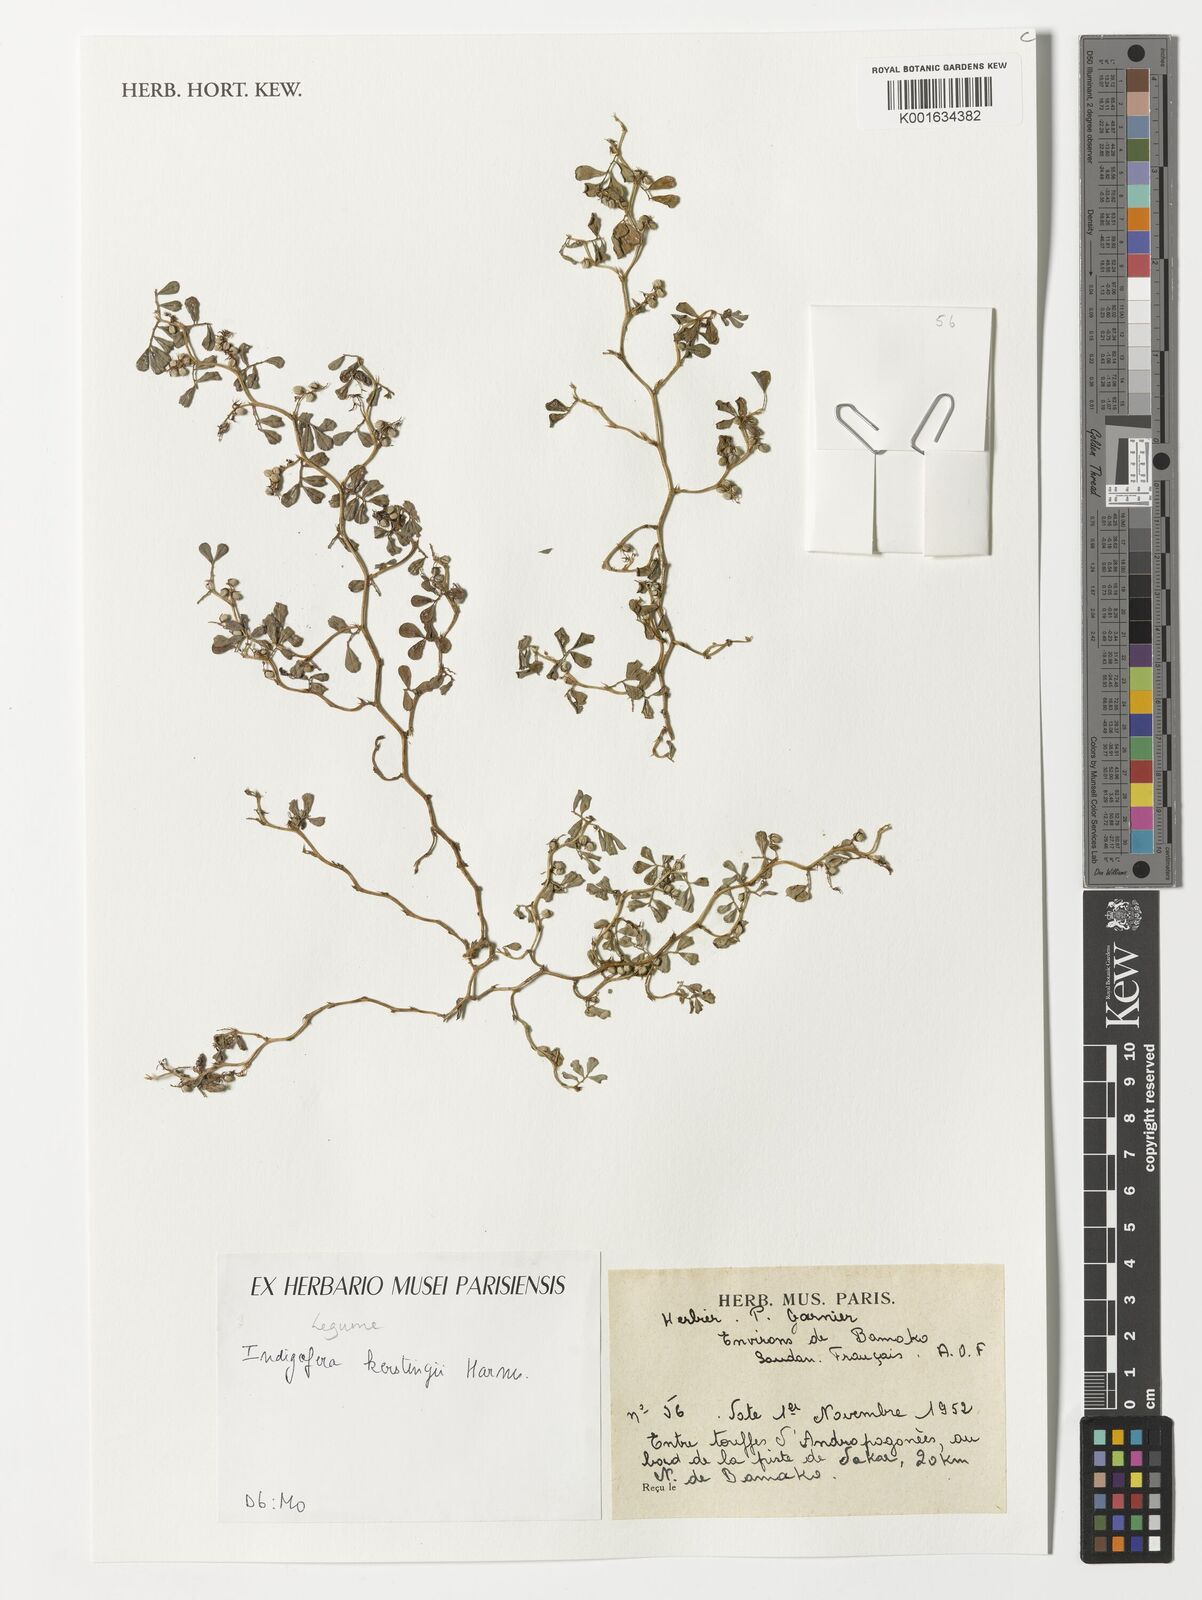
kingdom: Plantae
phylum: Tracheophyta
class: Magnoliopsida
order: Fabales
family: Fabaceae
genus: Indigofera
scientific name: Indigofera kerstingii
